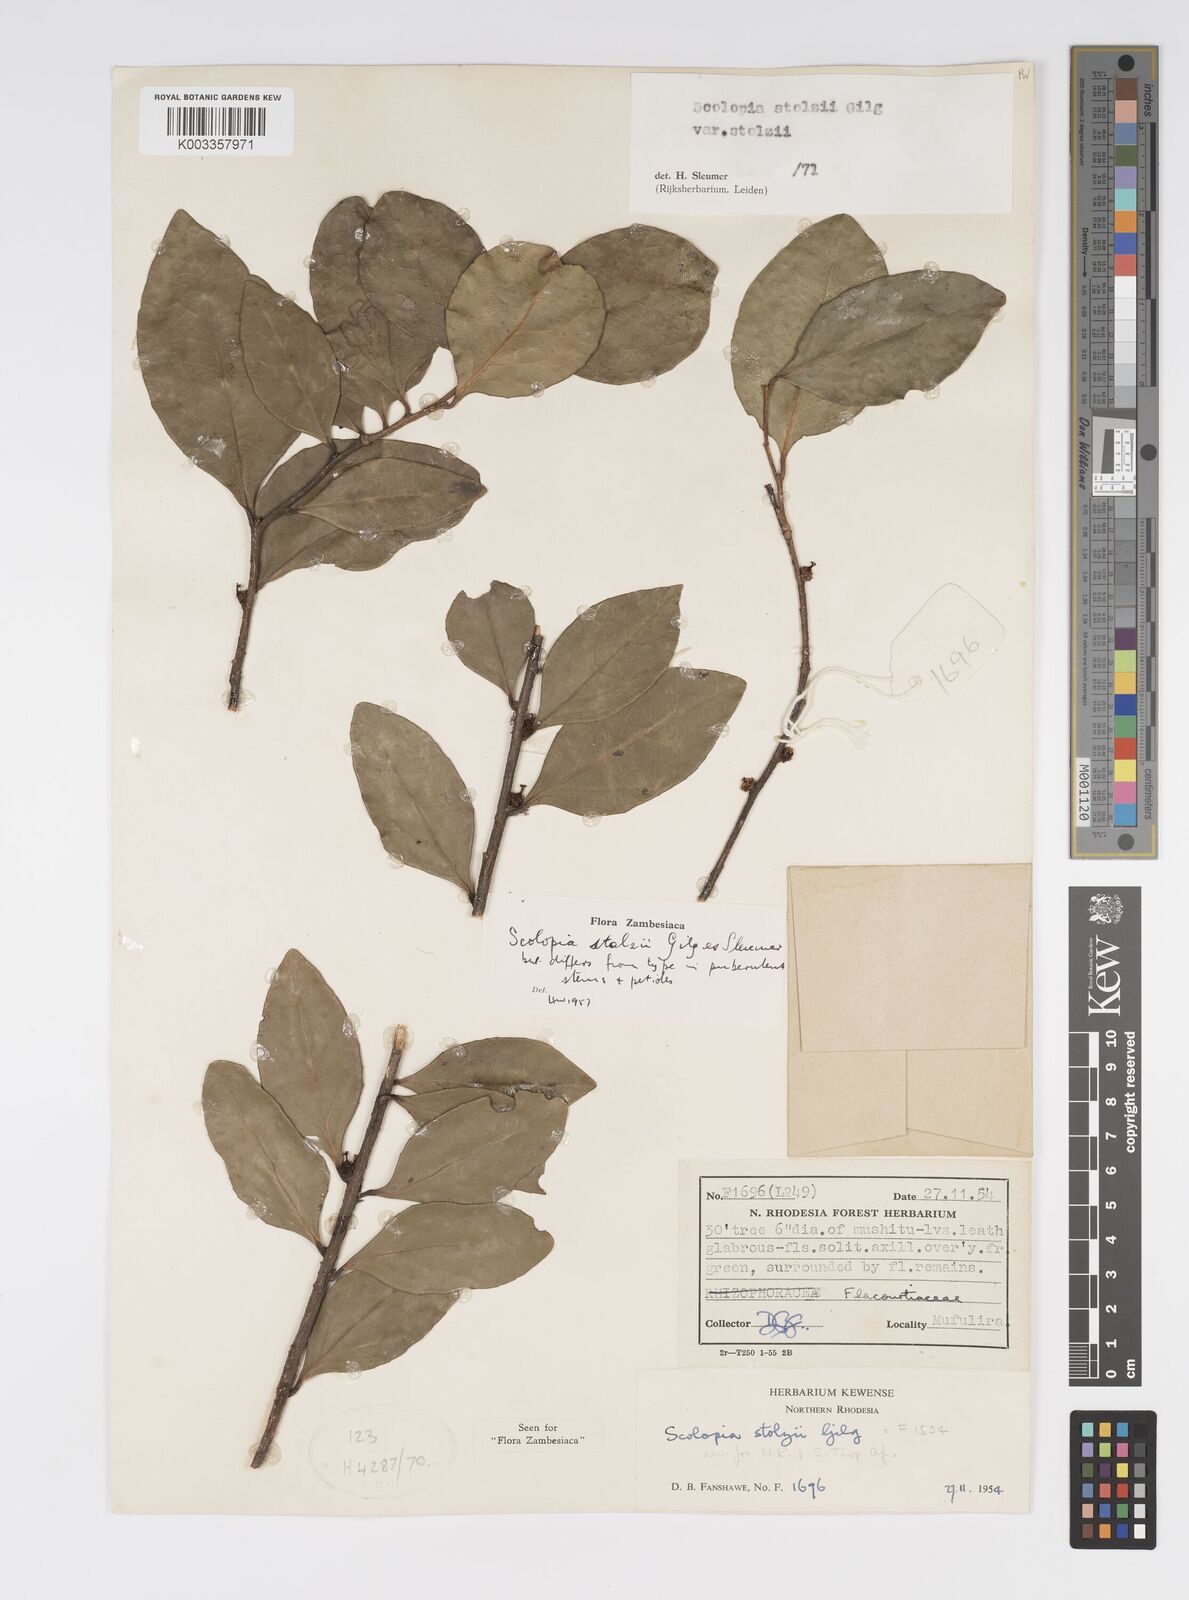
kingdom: Plantae
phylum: Tracheophyta
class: Magnoliopsida
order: Malpighiales
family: Salicaceae
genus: Scolopia
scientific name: Scolopia stolzii
